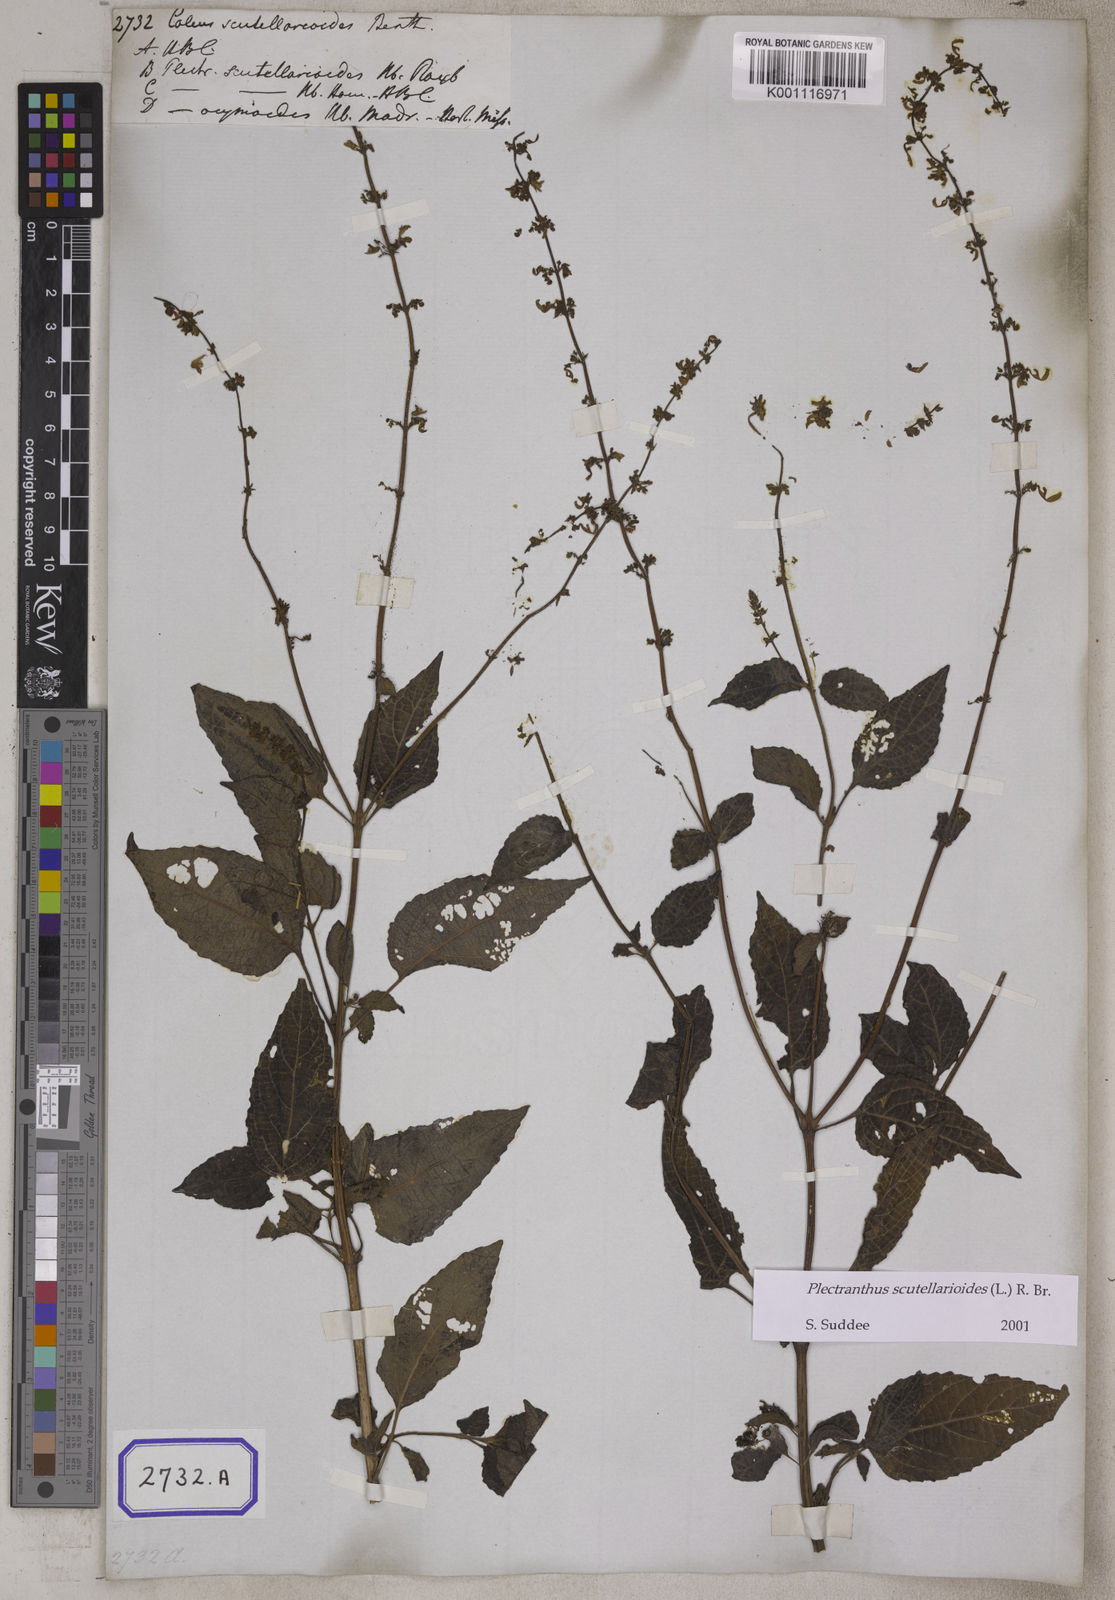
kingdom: Plantae
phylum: Tracheophyta
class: Magnoliopsida
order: Lamiales
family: Lamiaceae
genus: Coleus
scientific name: Coleus scutellarioides
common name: Coleus
